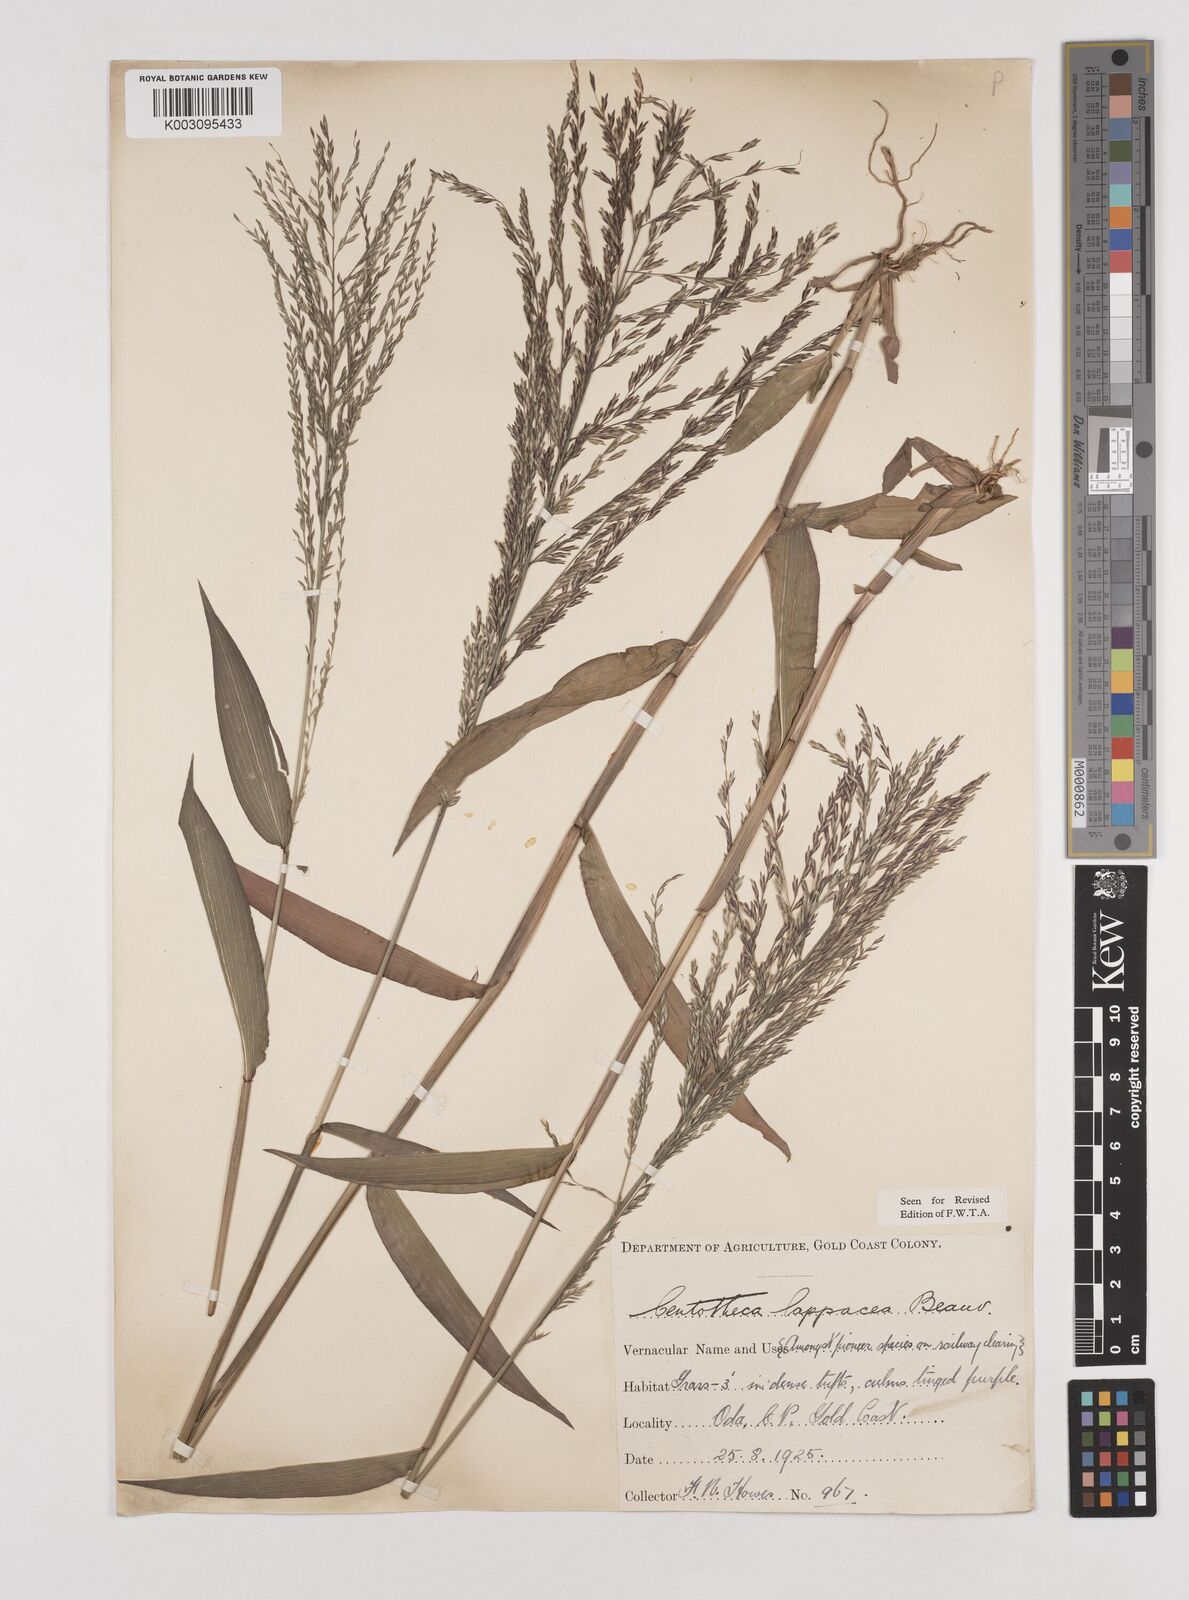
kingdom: Plantae
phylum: Tracheophyta
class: Liliopsida
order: Poales
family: Poaceae
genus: Centotheca
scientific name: Centotheca lappacea
